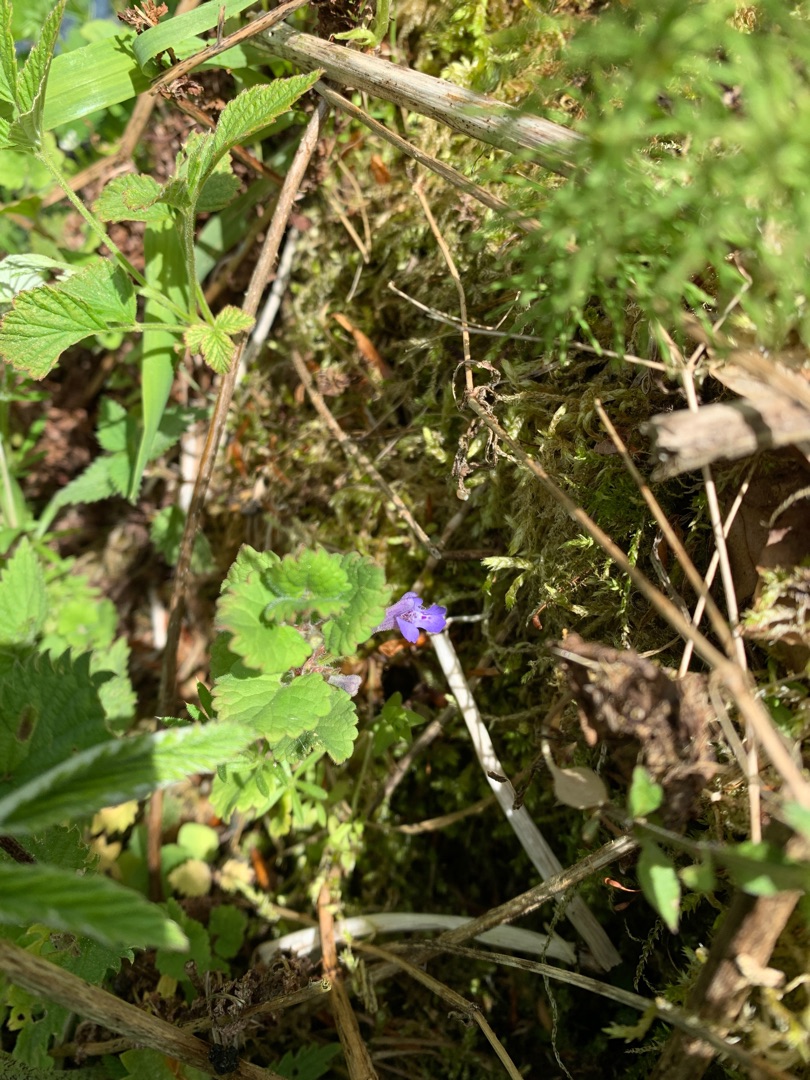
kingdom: Plantae
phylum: Tracheophyta
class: Magnoliopsida
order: Lamiales
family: Lamiaceae
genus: Glechoma
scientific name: Glechoma hederacea
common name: Korsknap
